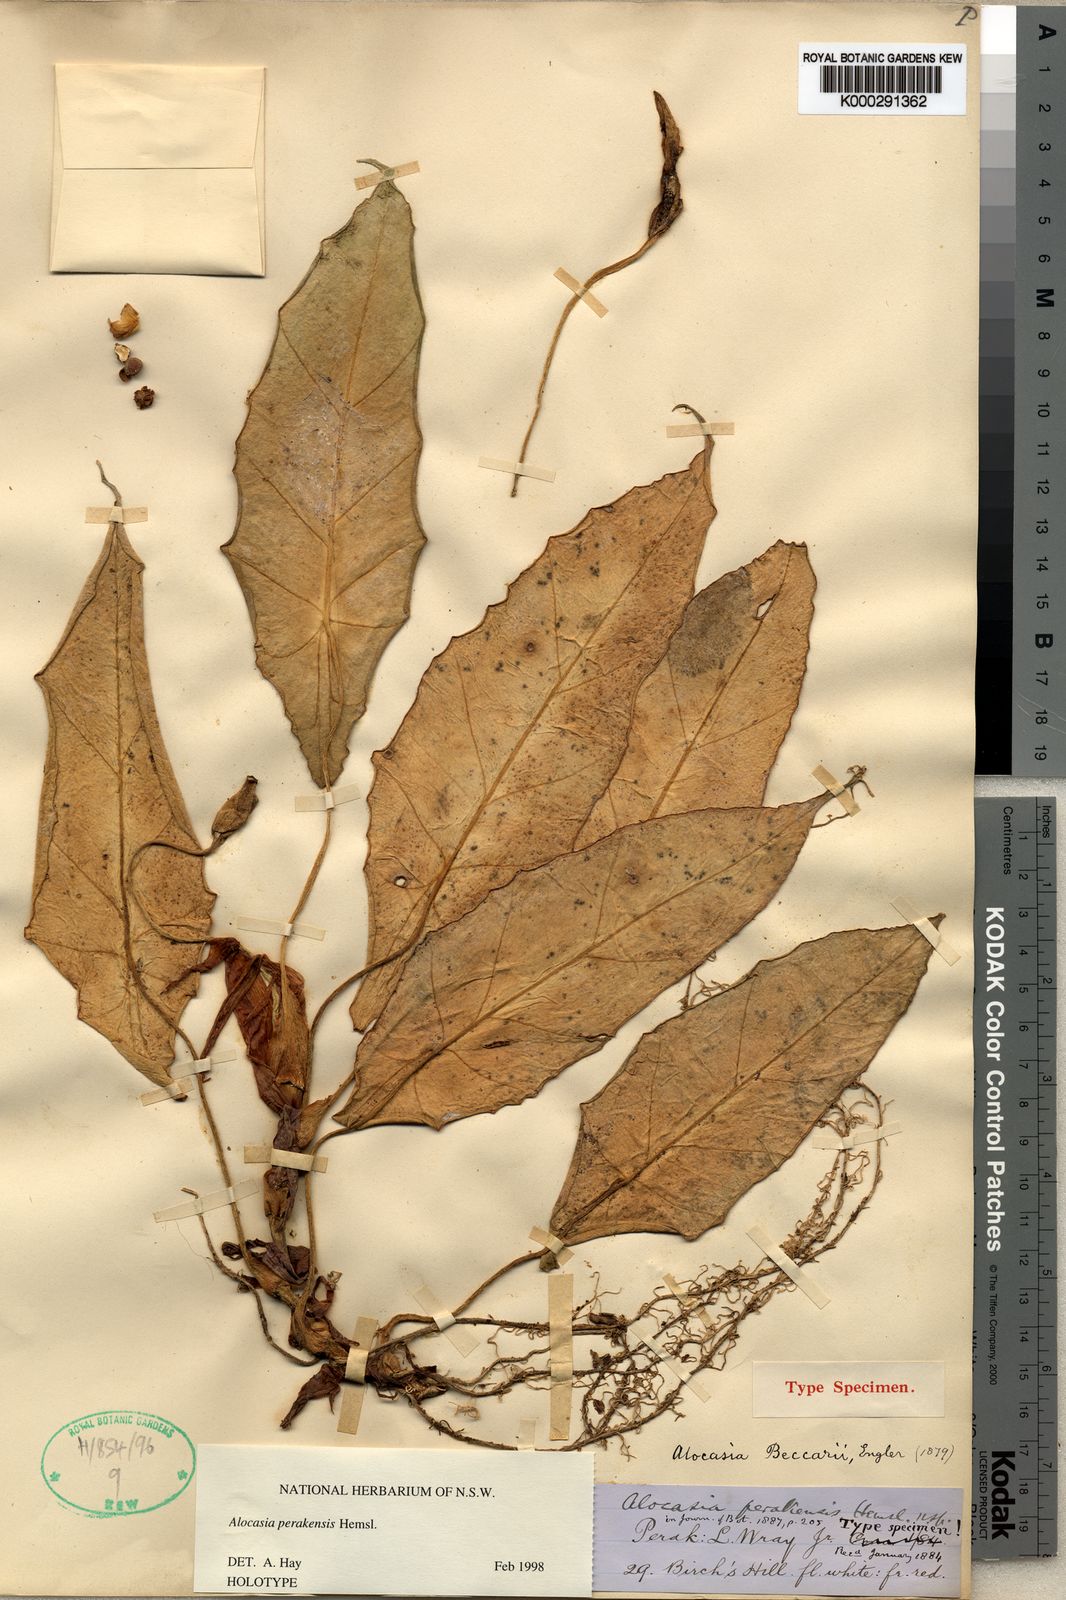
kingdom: Plantae
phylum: Tracheophyta
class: Liliopsida
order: Alismatales
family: Araceae
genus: Alocasia
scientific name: Alocasia perakensis
